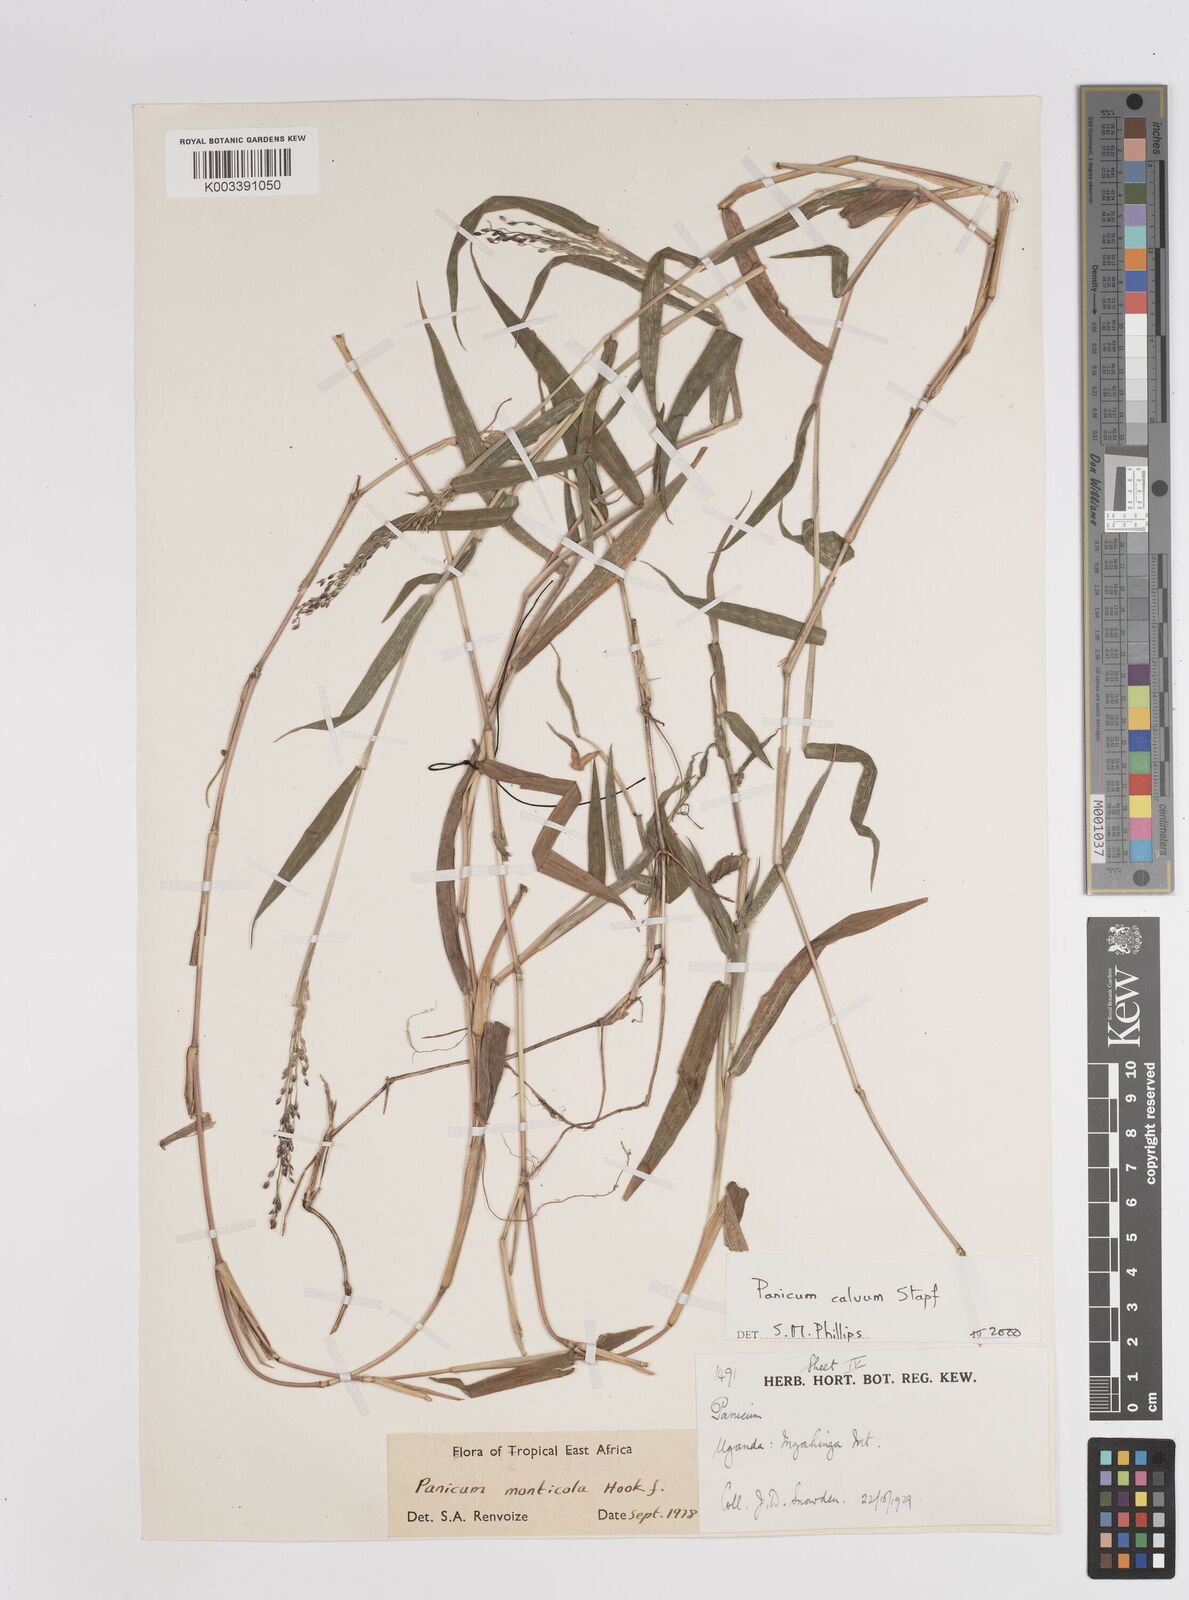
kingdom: Plantae
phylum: Tracheophyta
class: Liliopsida
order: Poales
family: Poaceae
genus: Panicum
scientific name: Panicum calvum
